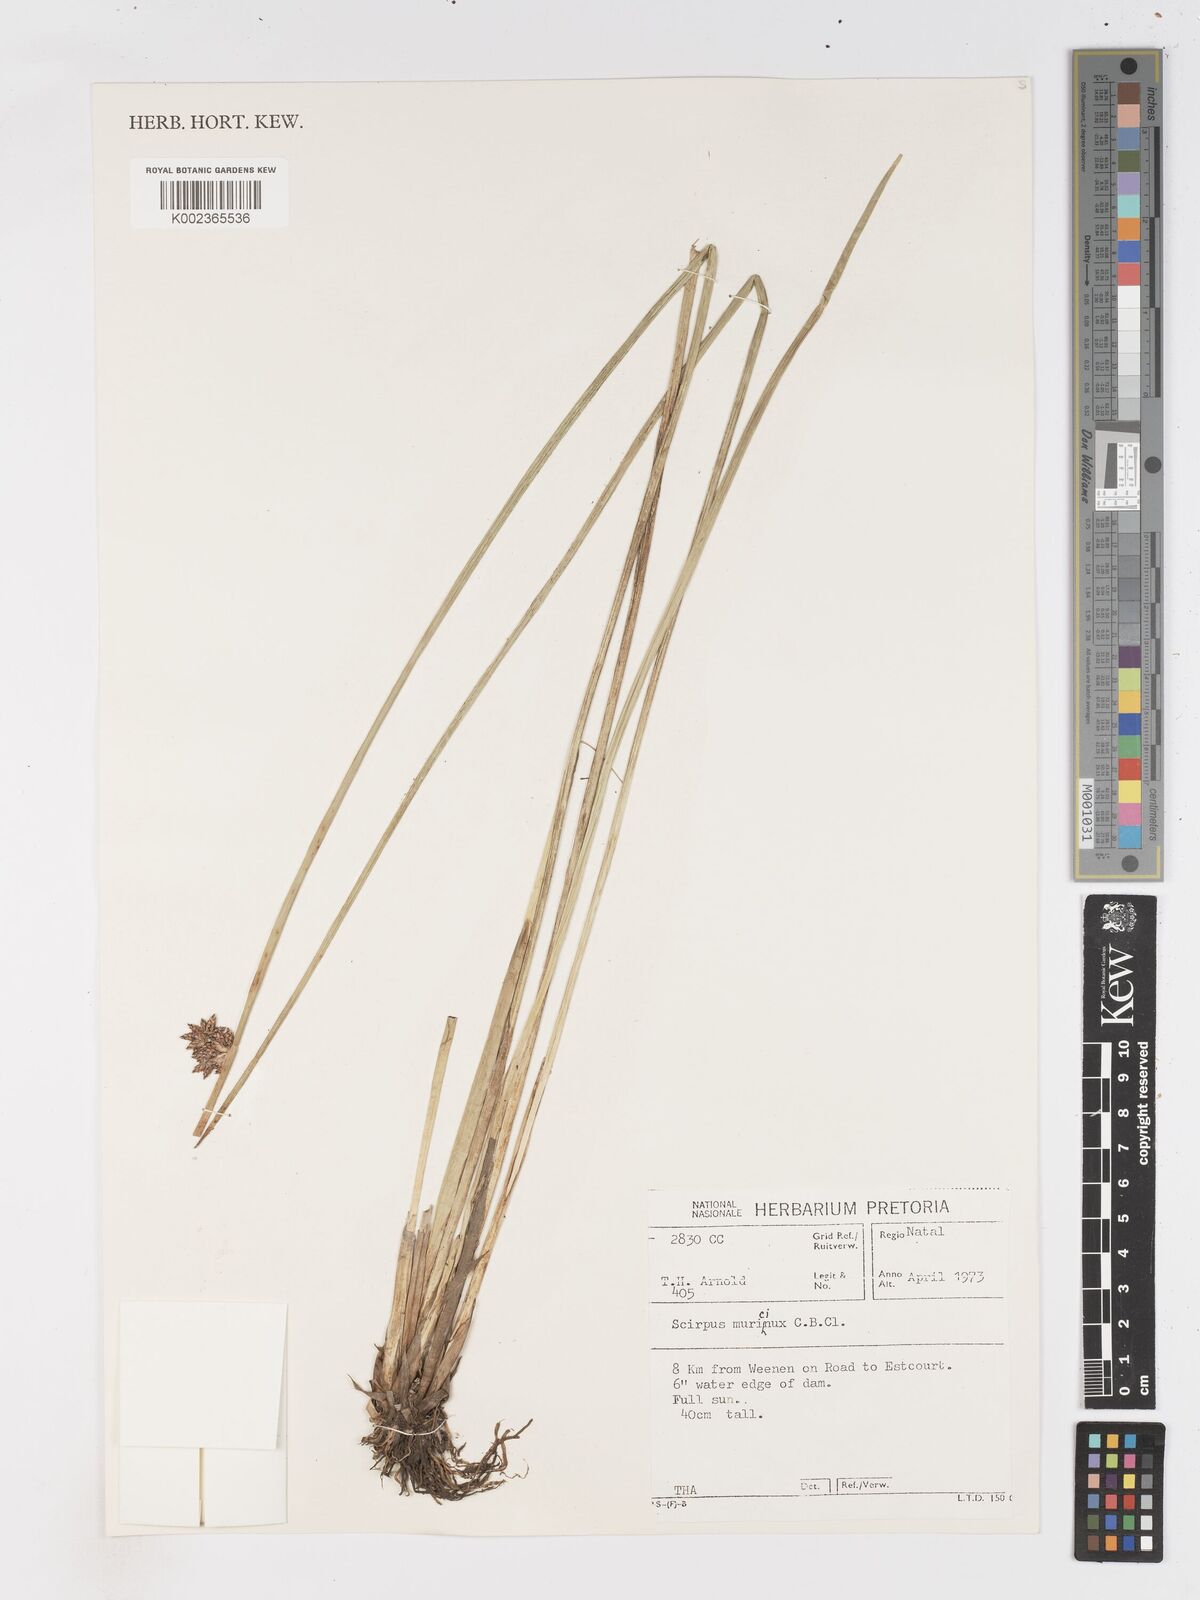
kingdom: Plantae
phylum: Tracheophyta
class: Liliopsida
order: Poales
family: Cyperaceae
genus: Schoenoplectiella
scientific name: Schoenoplectiella muricinux
